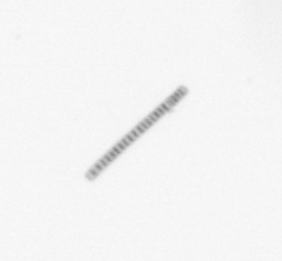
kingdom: Chromista
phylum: Ochrophyta
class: Bacillariophyceae
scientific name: Bacillariophyceae
